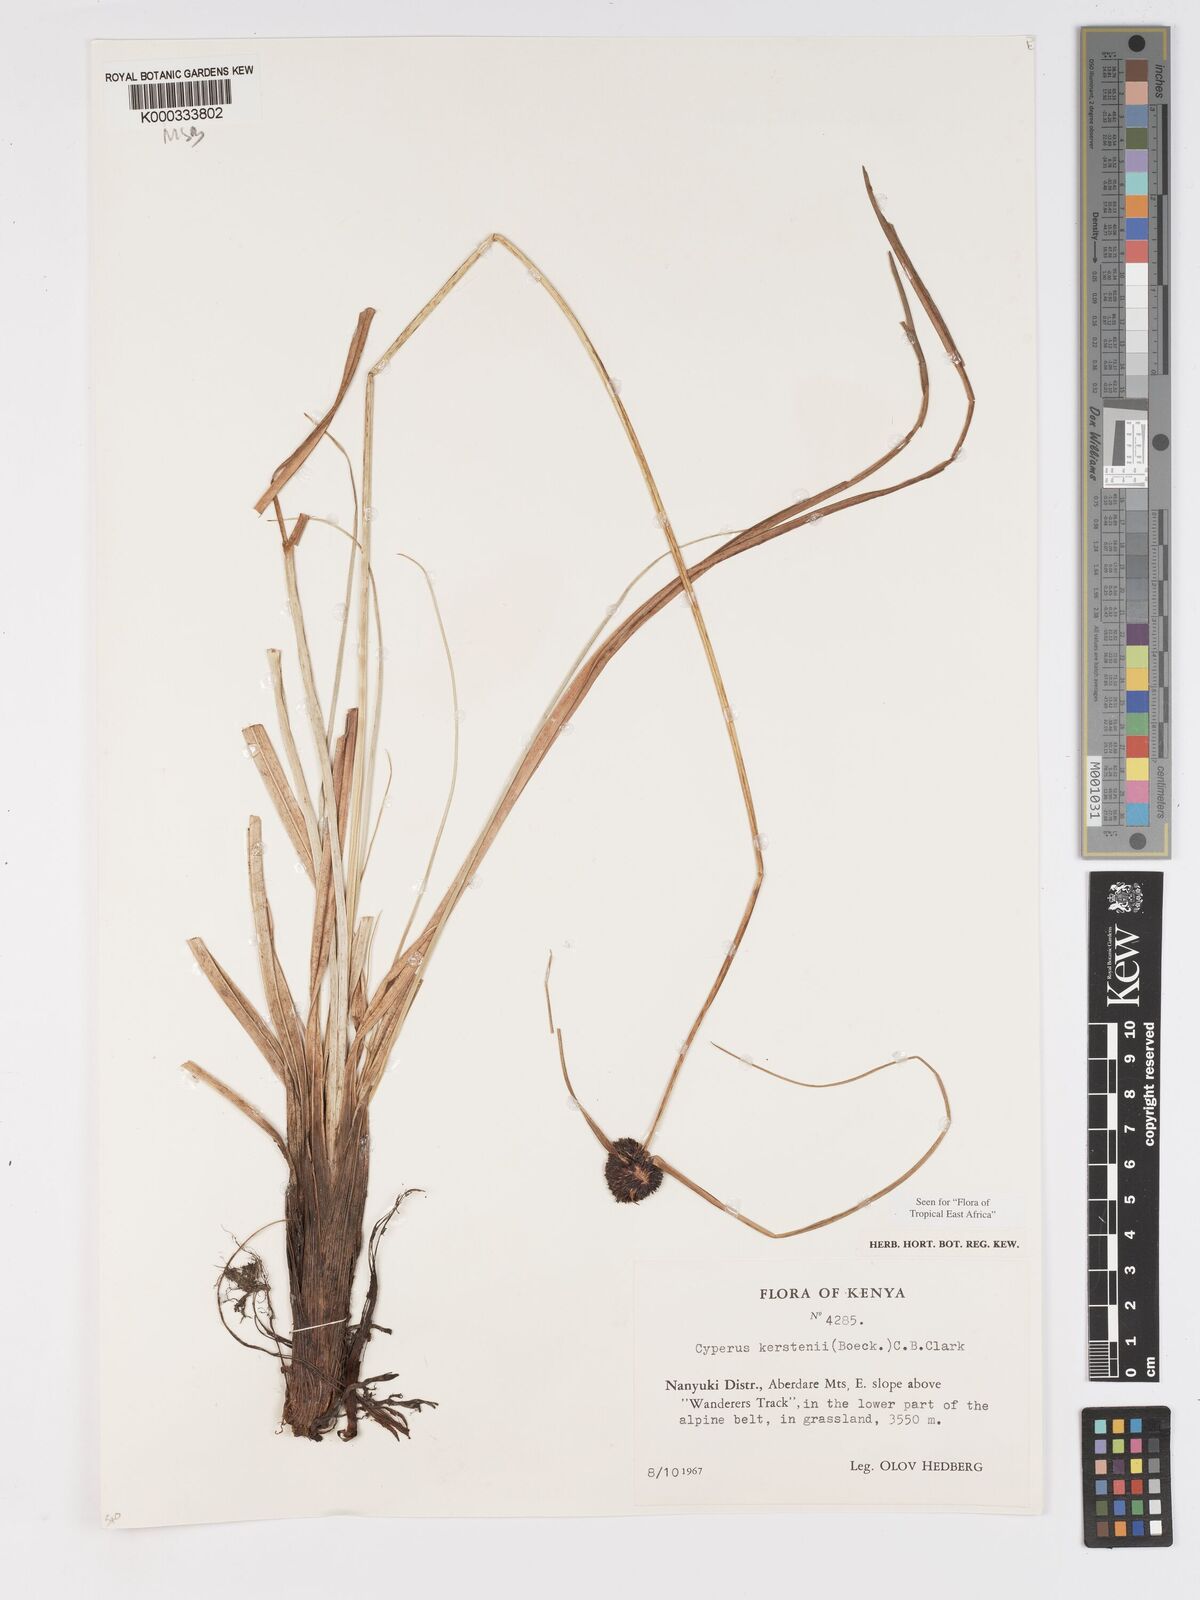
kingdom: Plantae
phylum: Tracheophyta
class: Liliopsida
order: Poales
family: Cyperaceae
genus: Cyperus
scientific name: Cyperus kerstenii
